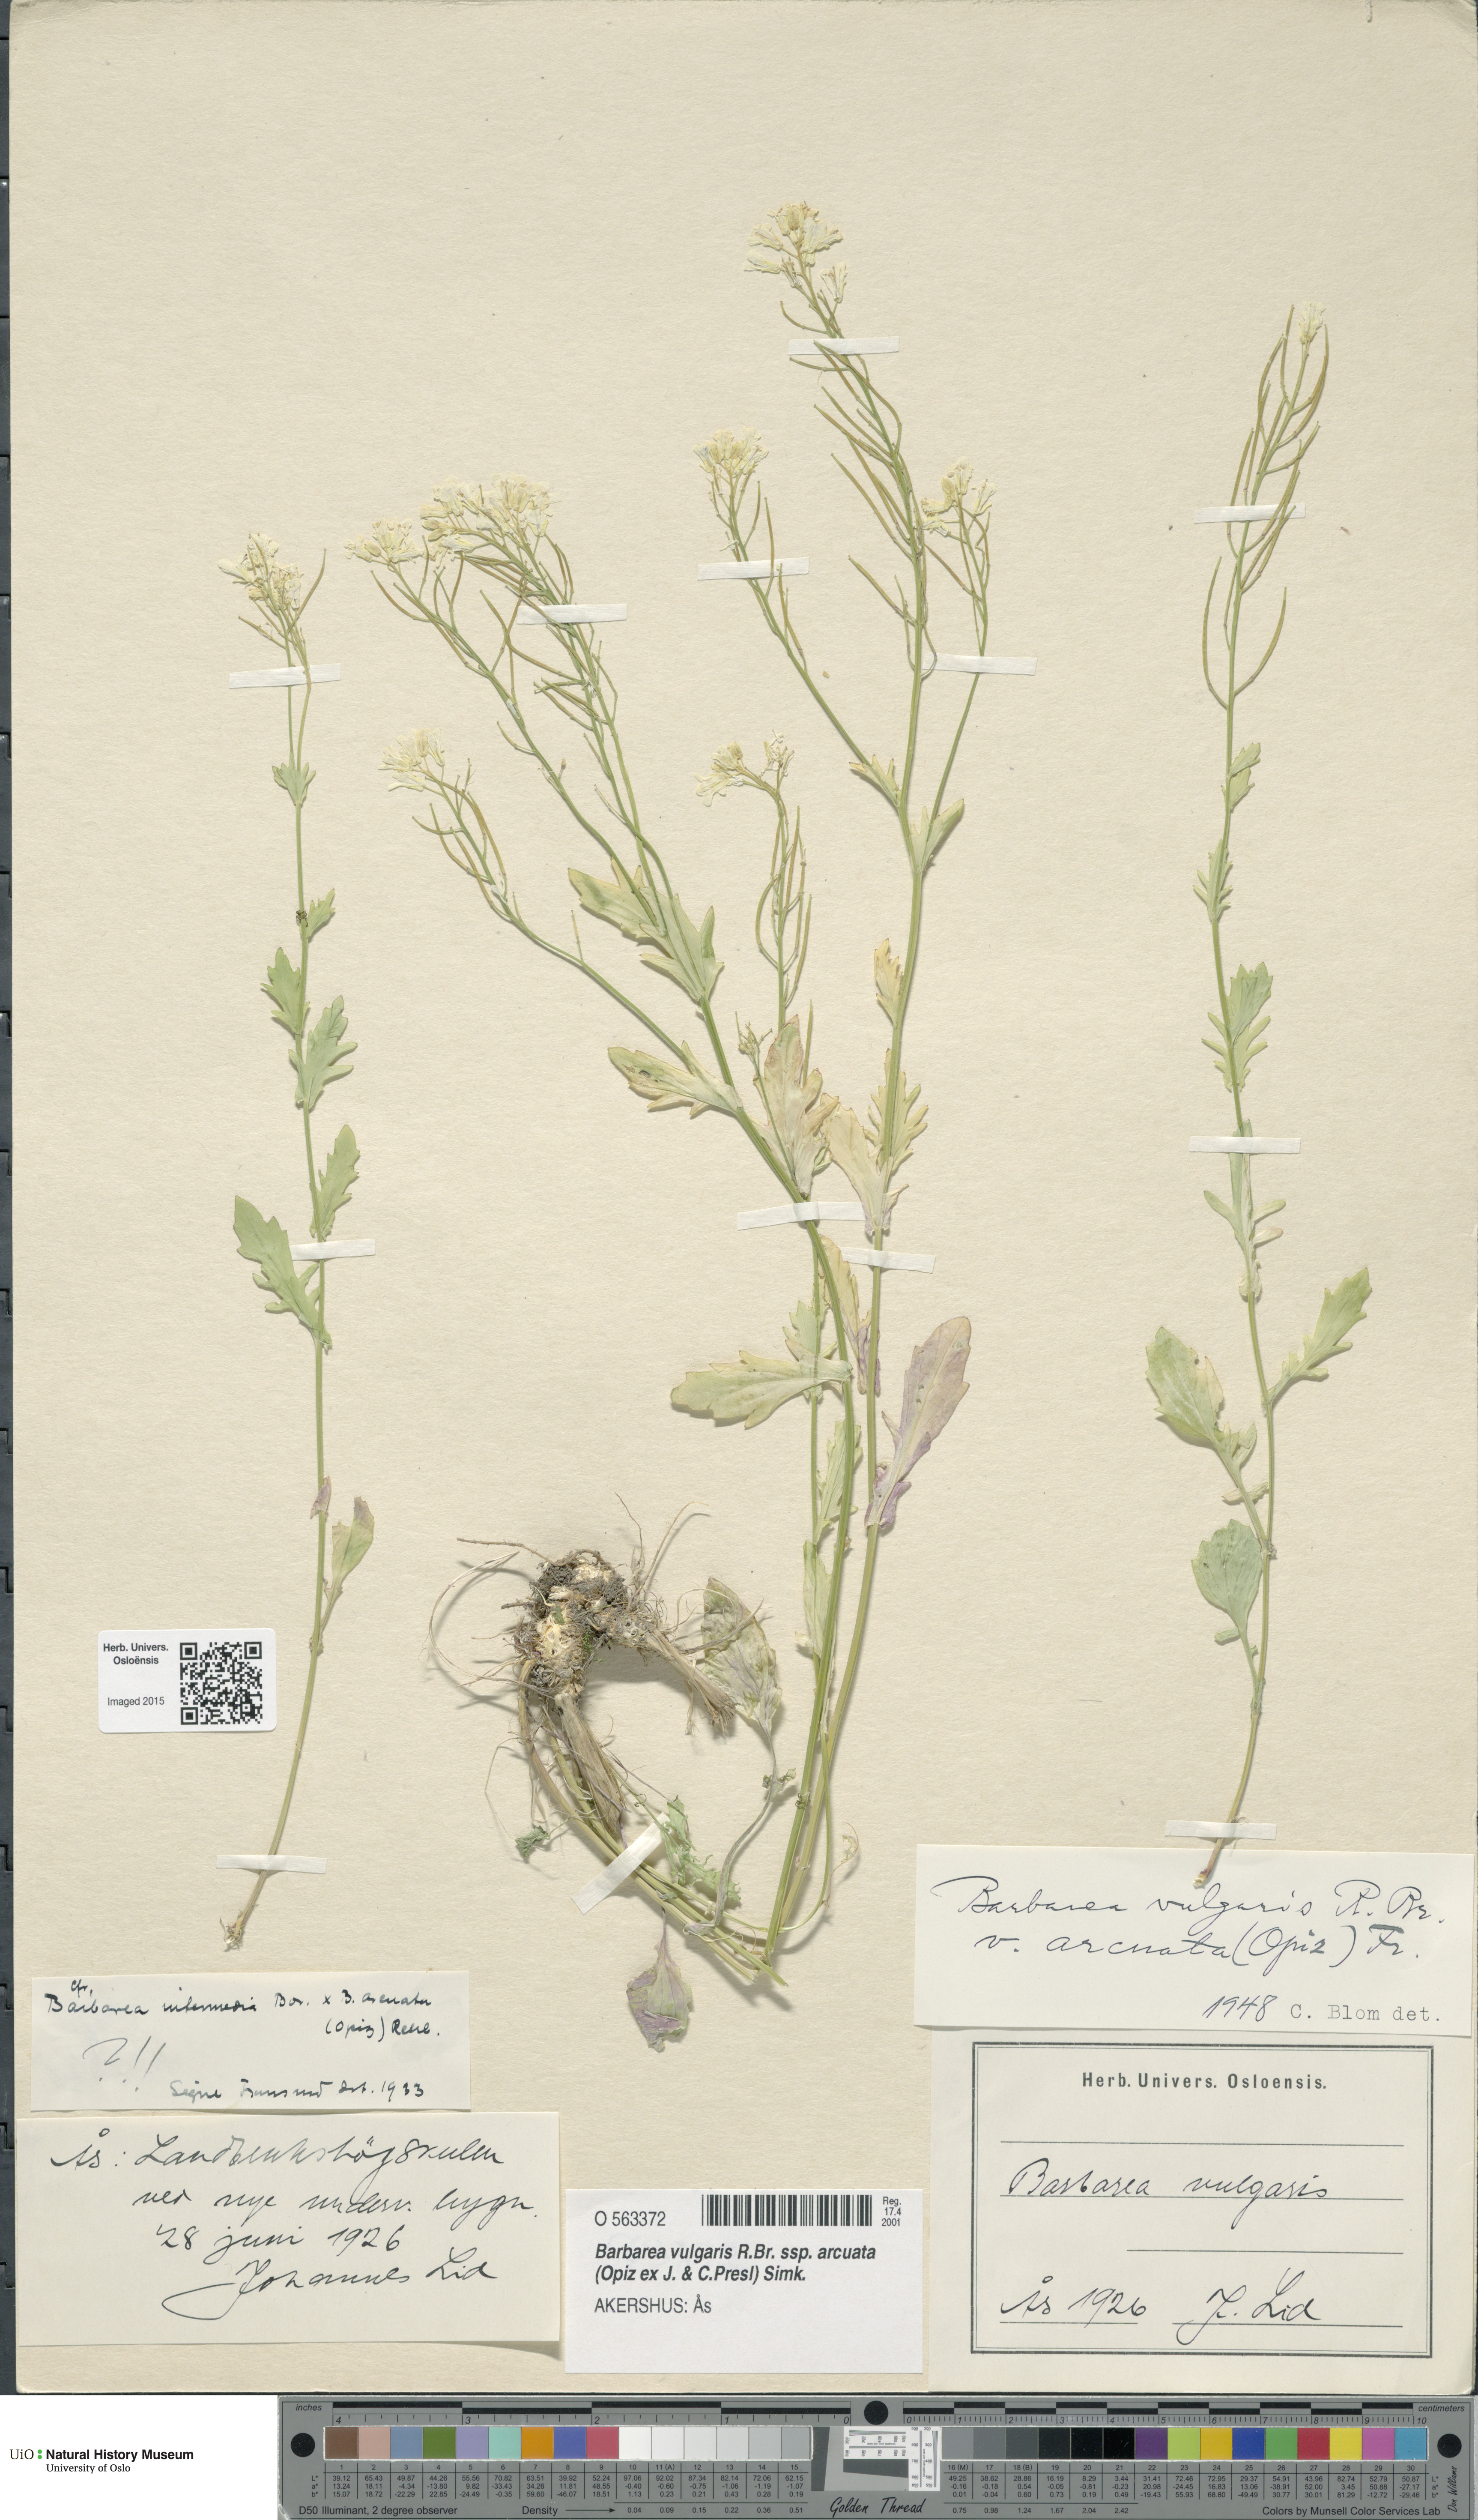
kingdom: Plantae
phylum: Tracheophyta
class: Magnoliopsida
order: Brassicales
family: Brassicaceae
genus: Barbarea
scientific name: Barbarea vulgaris
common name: Cressy-greens
